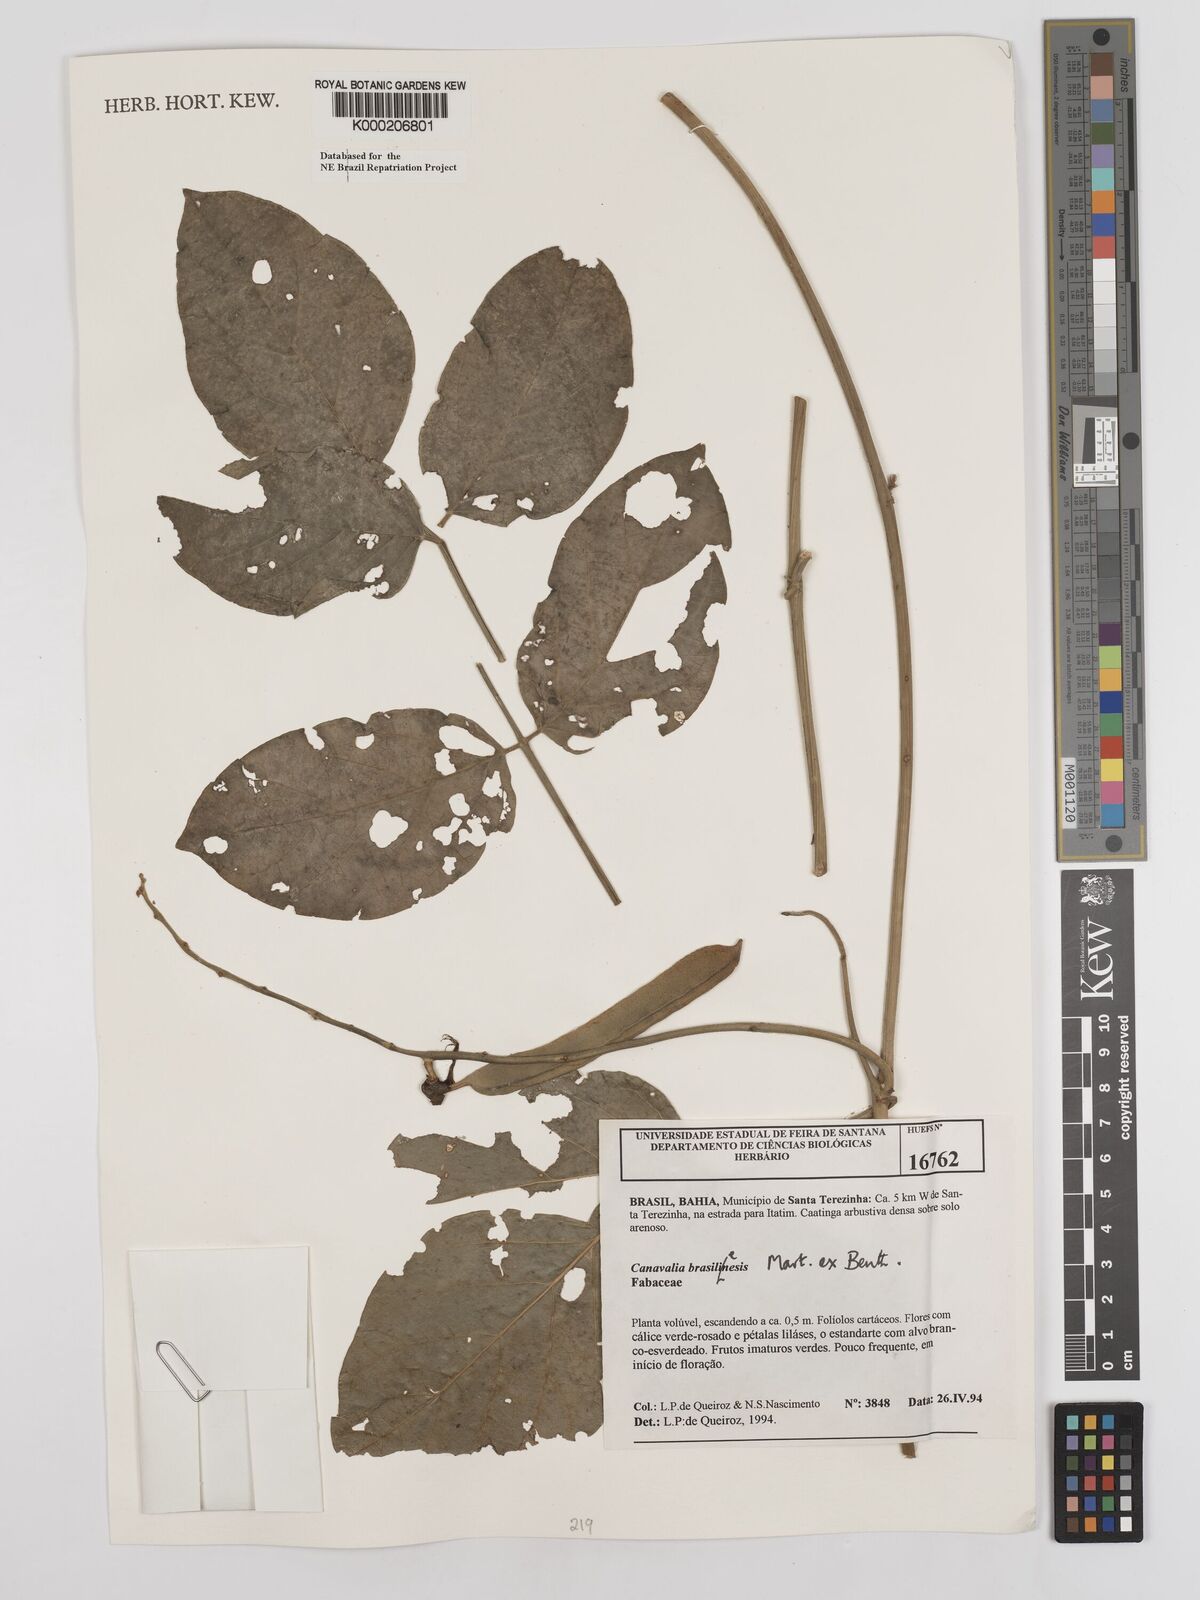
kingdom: Plantae
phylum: Tracheophyta
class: Magnoliopsida
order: Fabales
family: Fabaceae
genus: Canavalia
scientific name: Canavalia brasiliensis
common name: Barbicou-bean
